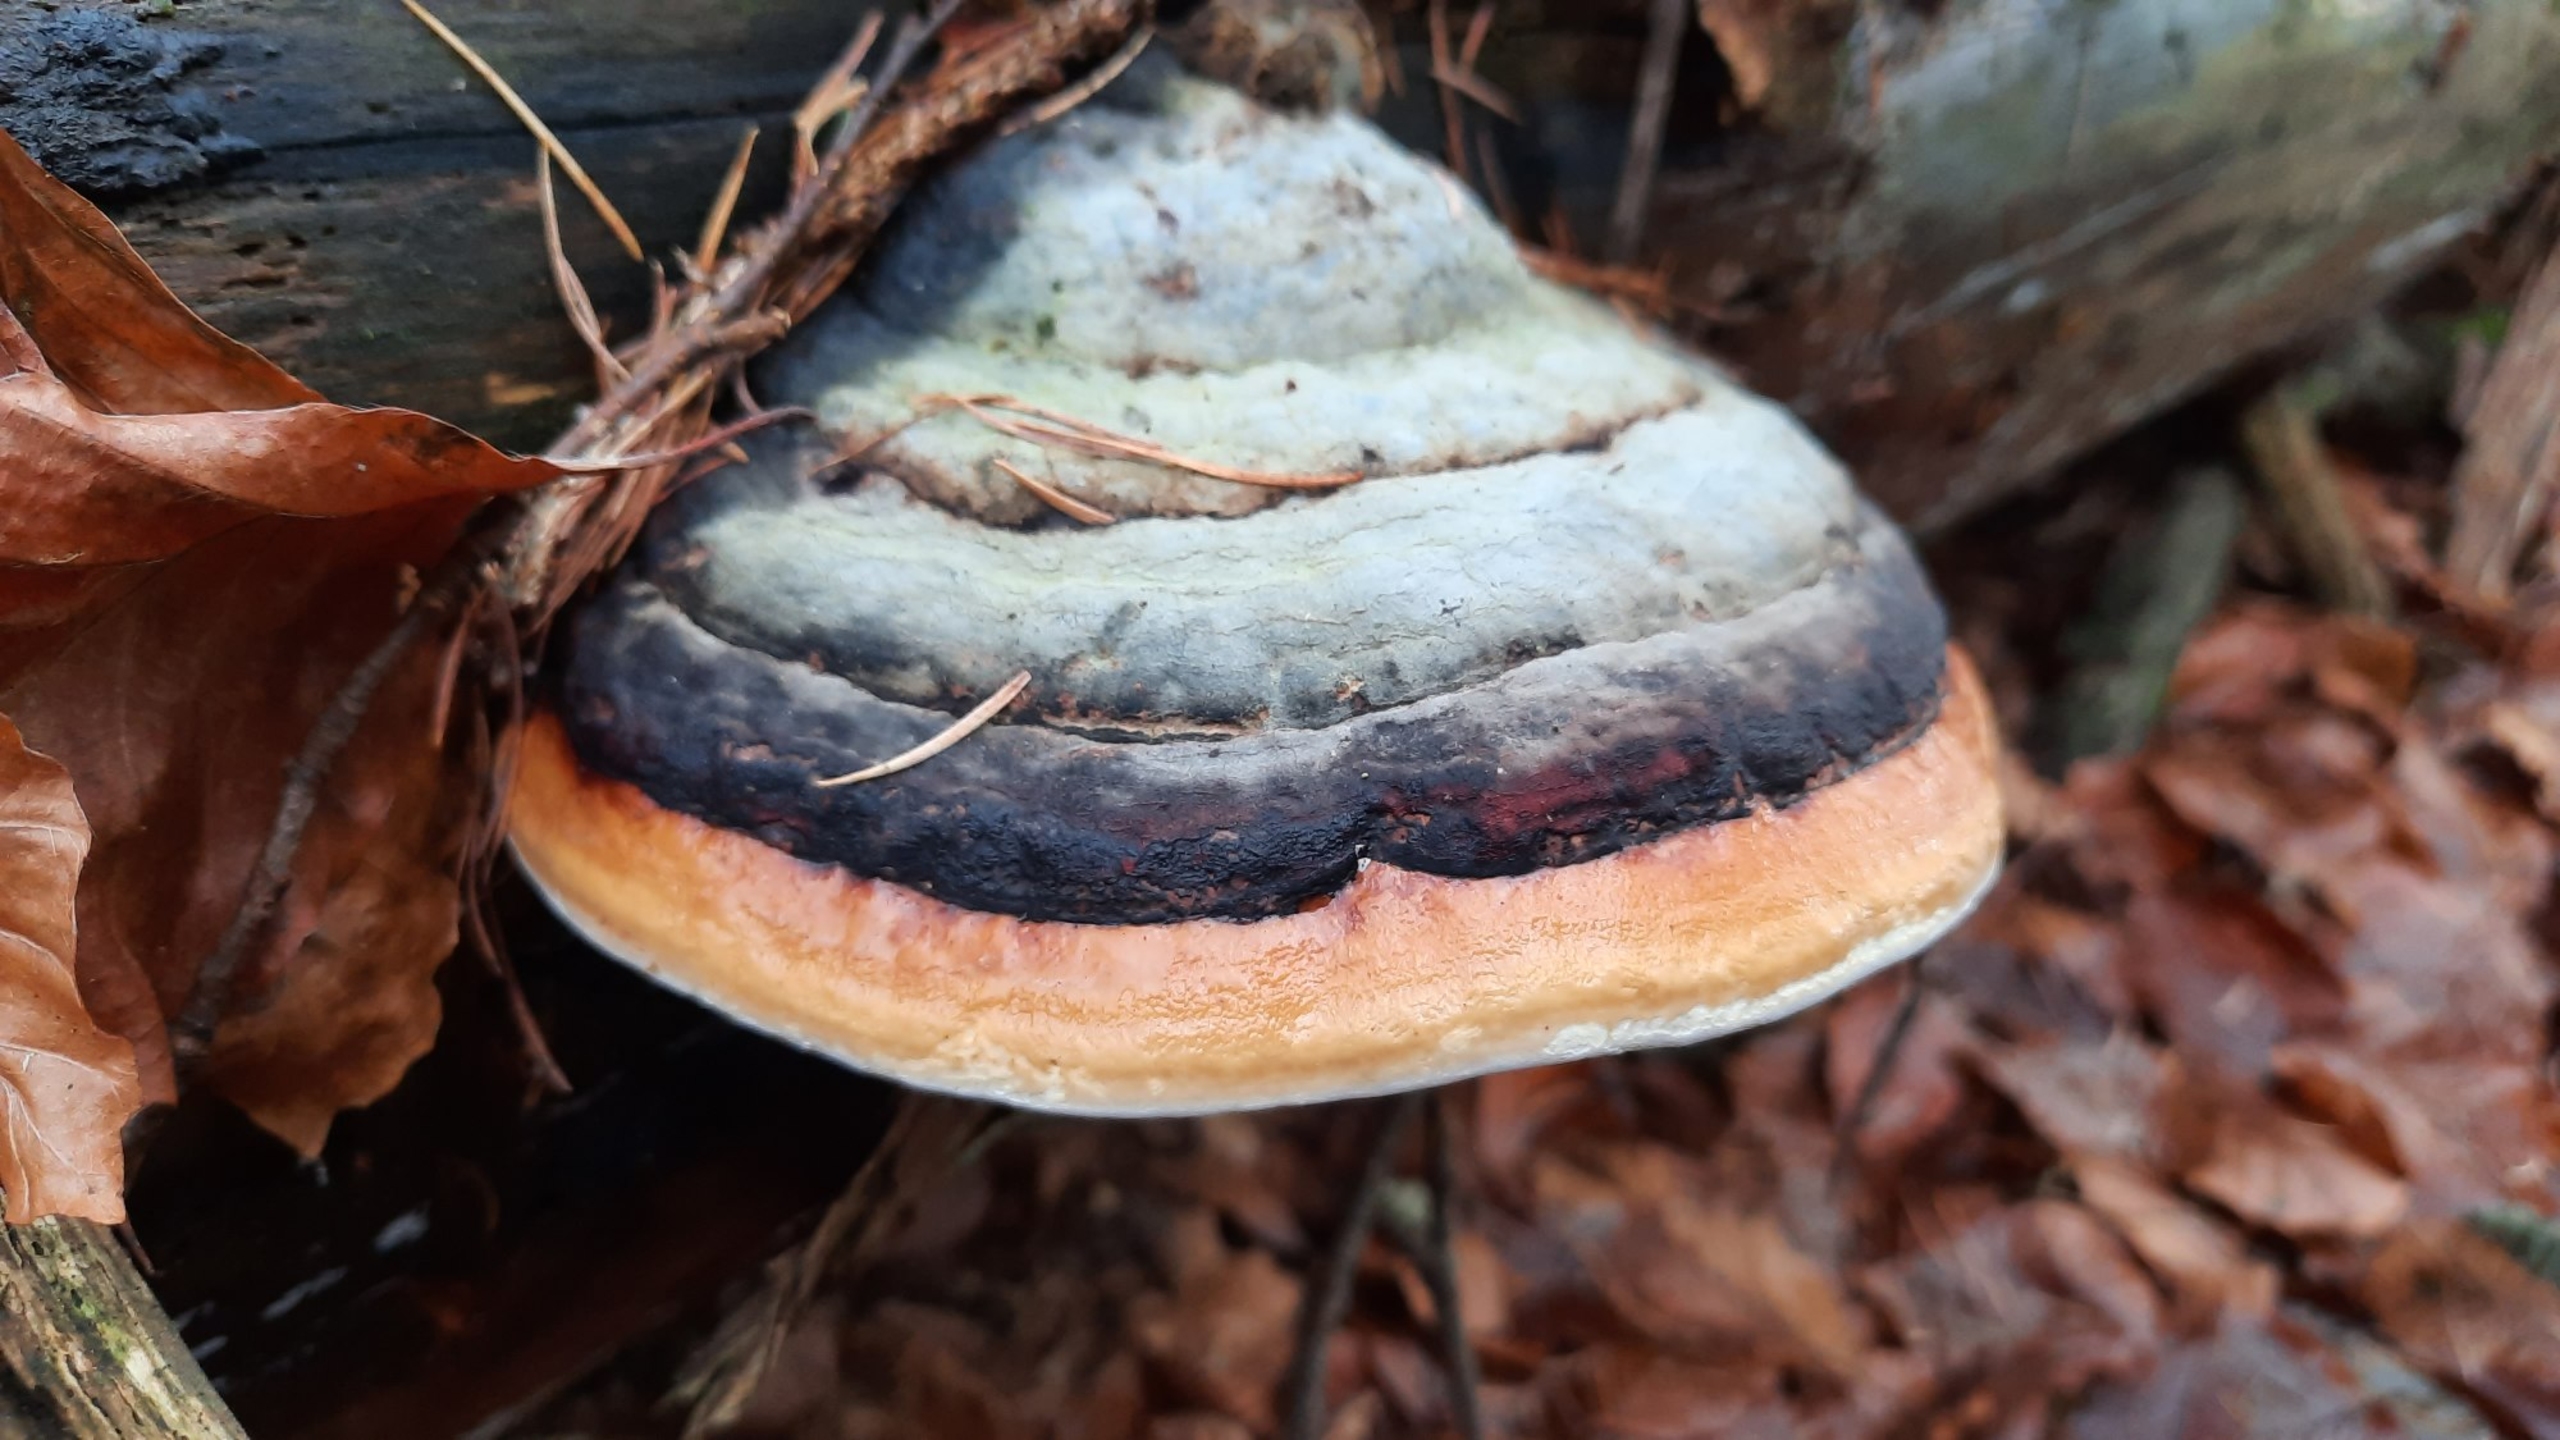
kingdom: Fungi
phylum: Basidiomycota
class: Agaricomycetes
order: Polyporales
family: Fomitopsidaceae
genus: Fomitopsis
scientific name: Fomitopsis pinicola
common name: Randbæltet hovporesvamp
